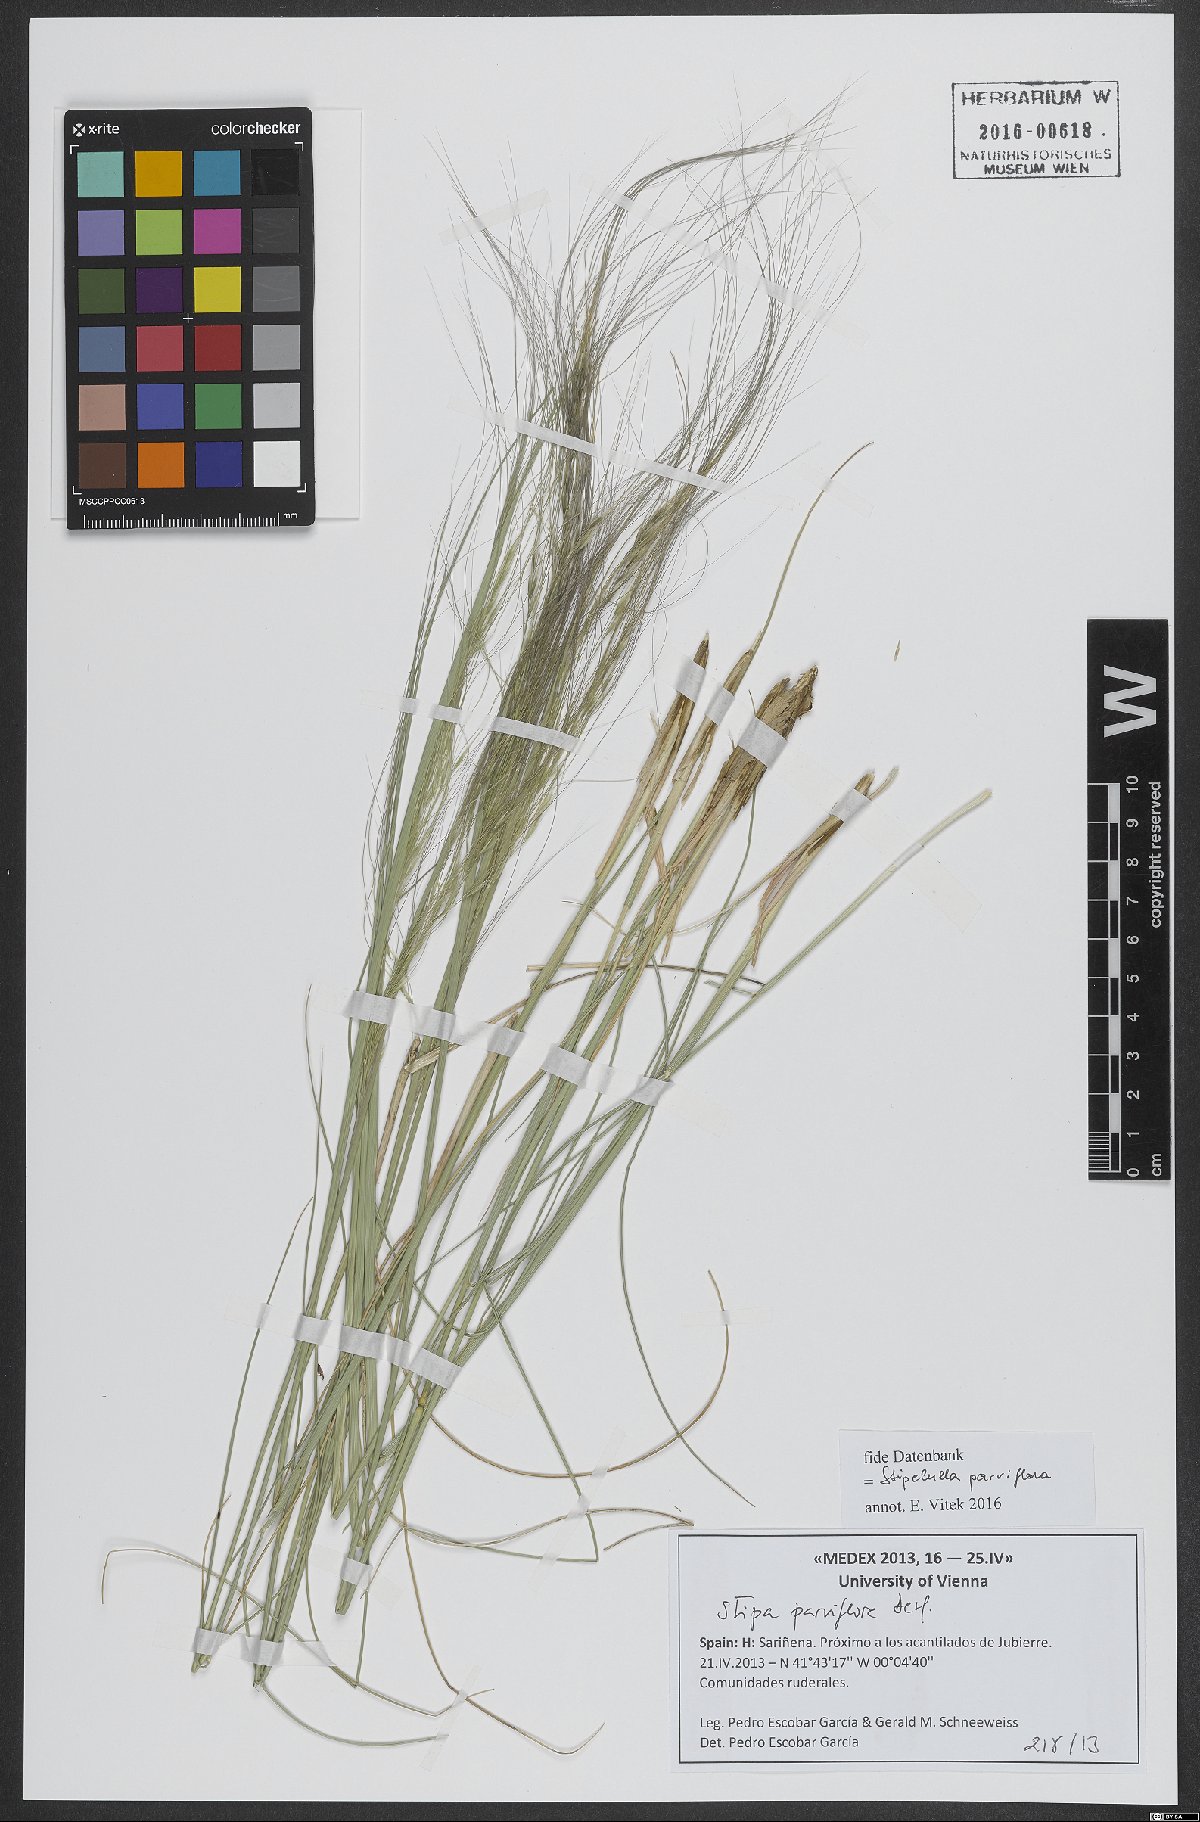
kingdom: Plantae
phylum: Tracheophyta
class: Liliopsida
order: Poales
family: Poaceae
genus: Achnatherum
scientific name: Achnatherum parviflorum
